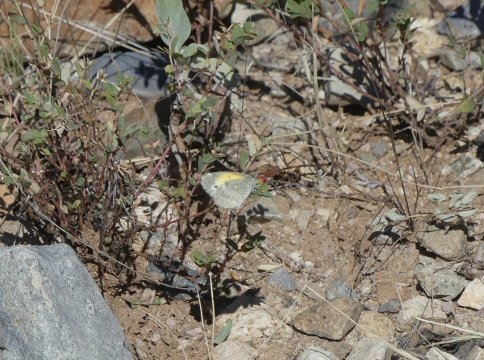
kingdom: Animalia
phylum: Arthropoda
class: Insecta
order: Lepidoptera
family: Pieridae
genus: Nathalis
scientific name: Nathalis iole
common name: Dainty Sulphur
